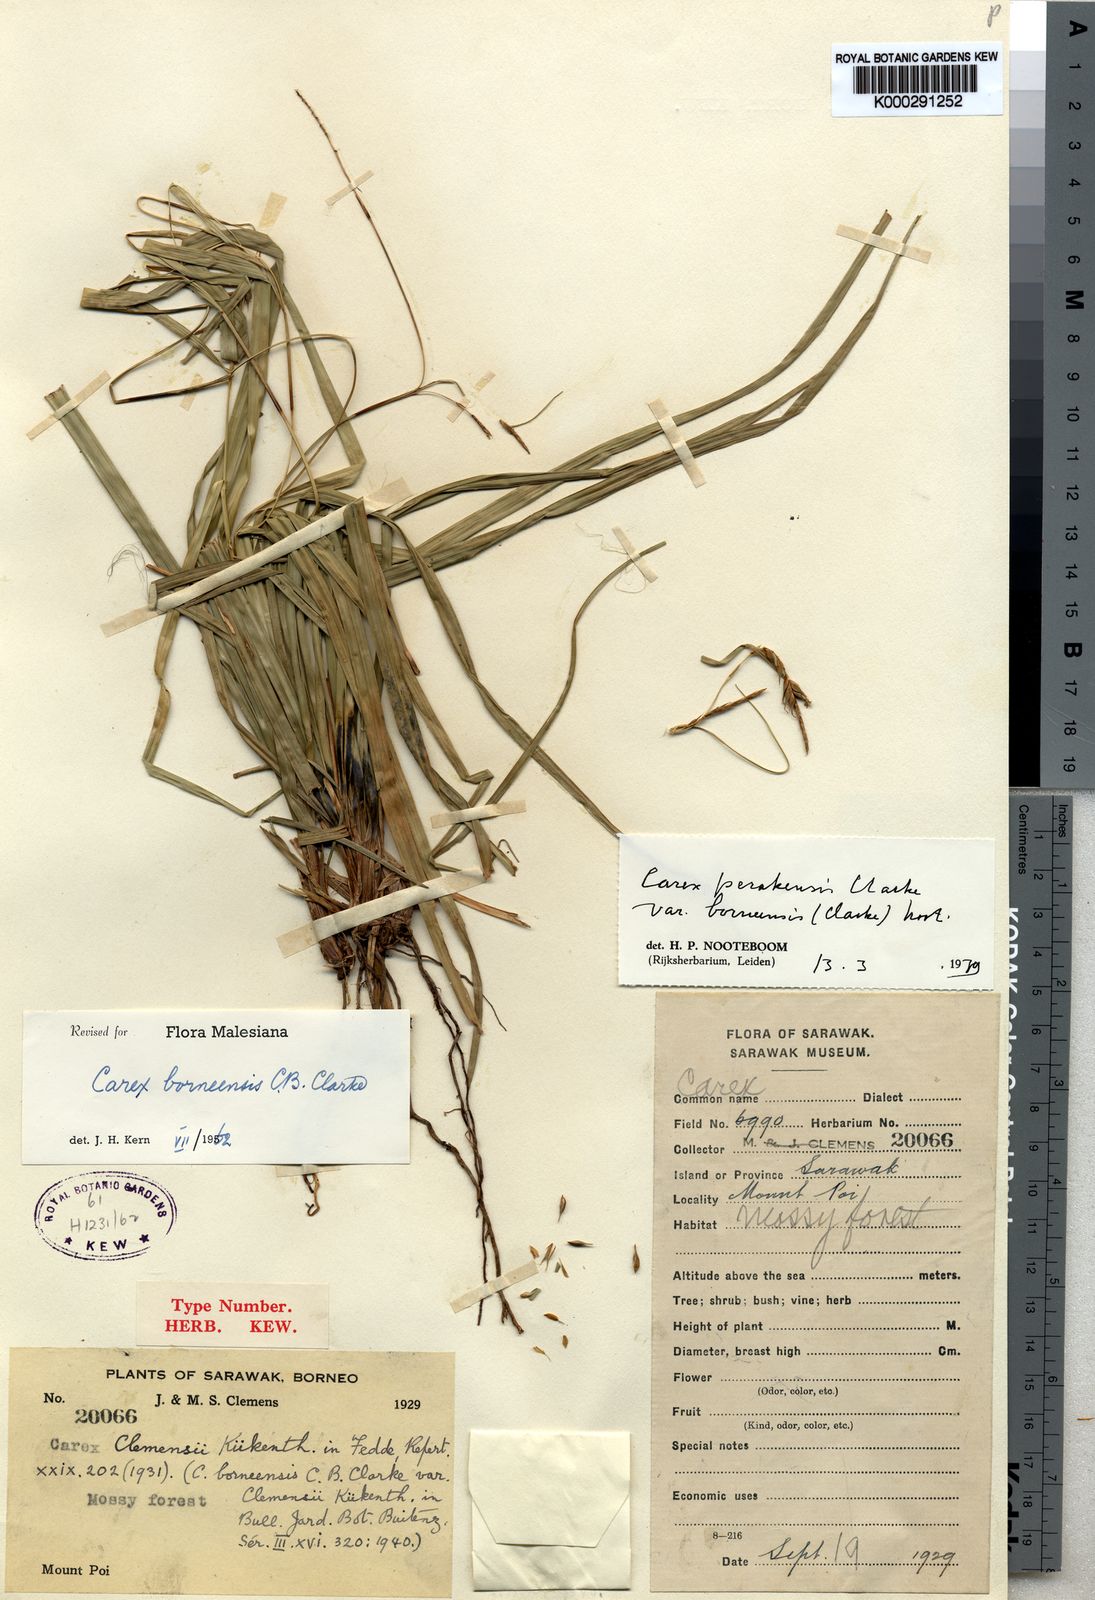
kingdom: Plantae
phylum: Tracheophyta
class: Liliopsida
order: Poales
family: Cyperaceae
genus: Carex
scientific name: Carex perakensis
